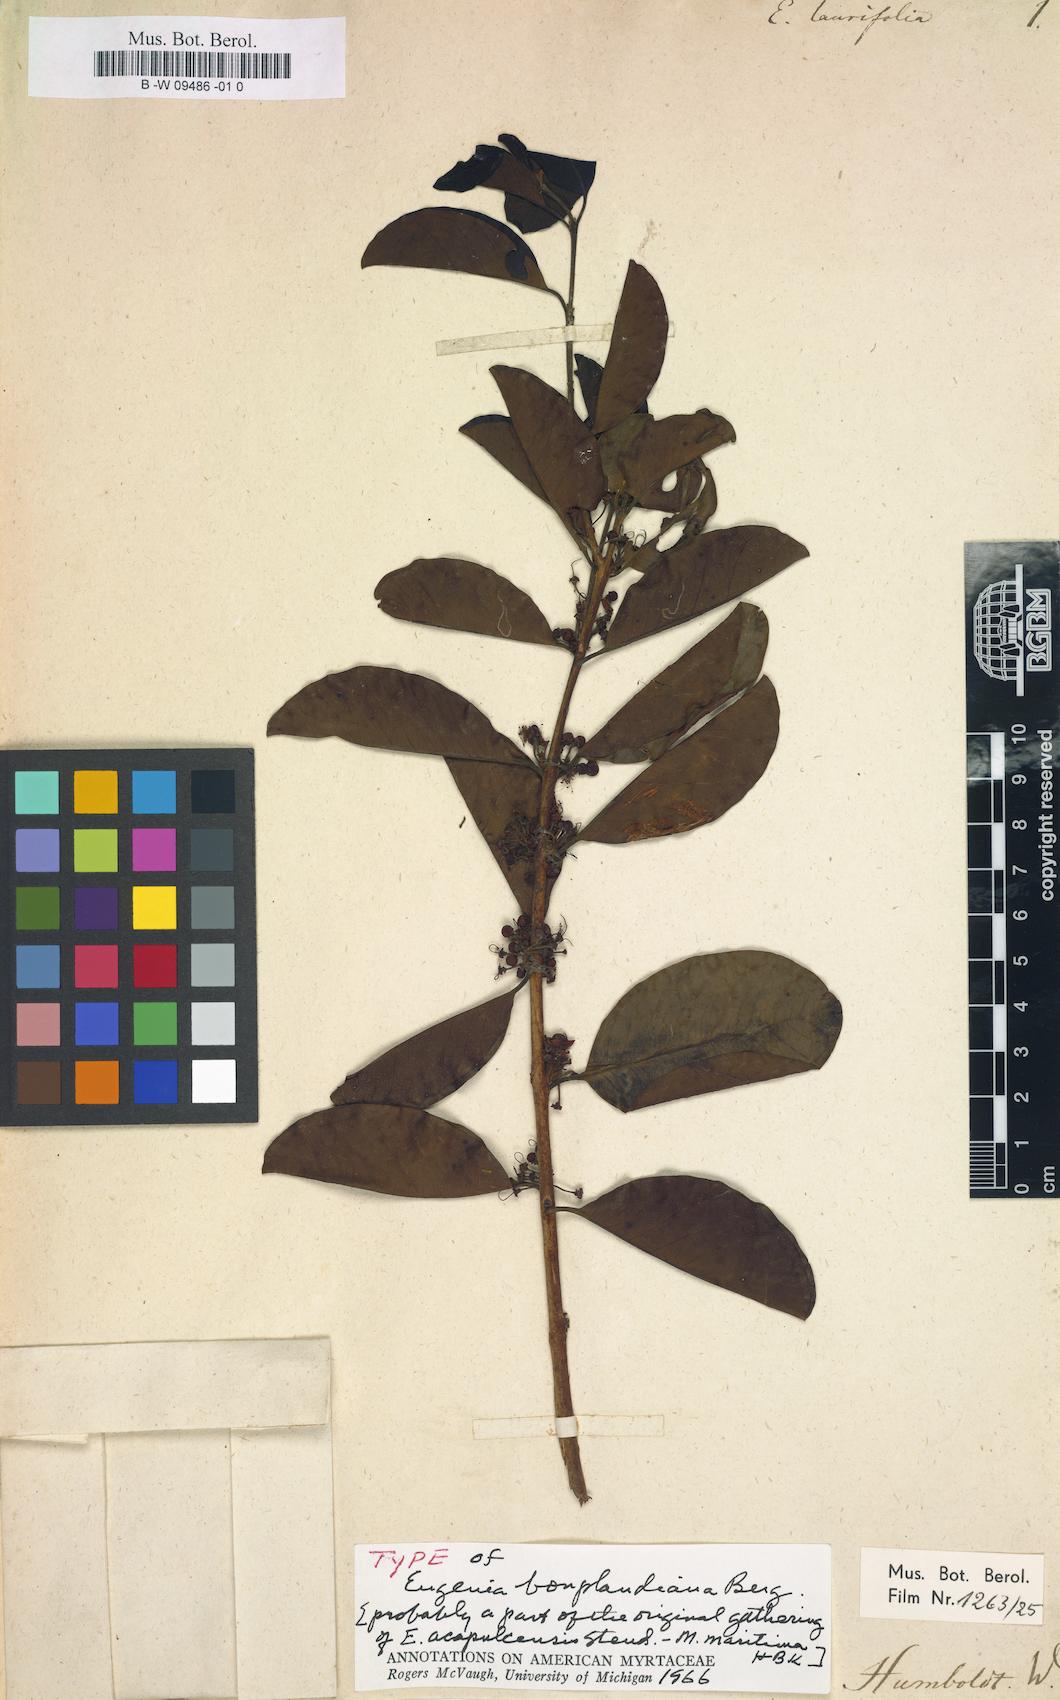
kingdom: Plantae
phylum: Tracheophyta
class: Magnoliopsida
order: Myrtales
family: Myrtaceae
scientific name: Myrtaceae
